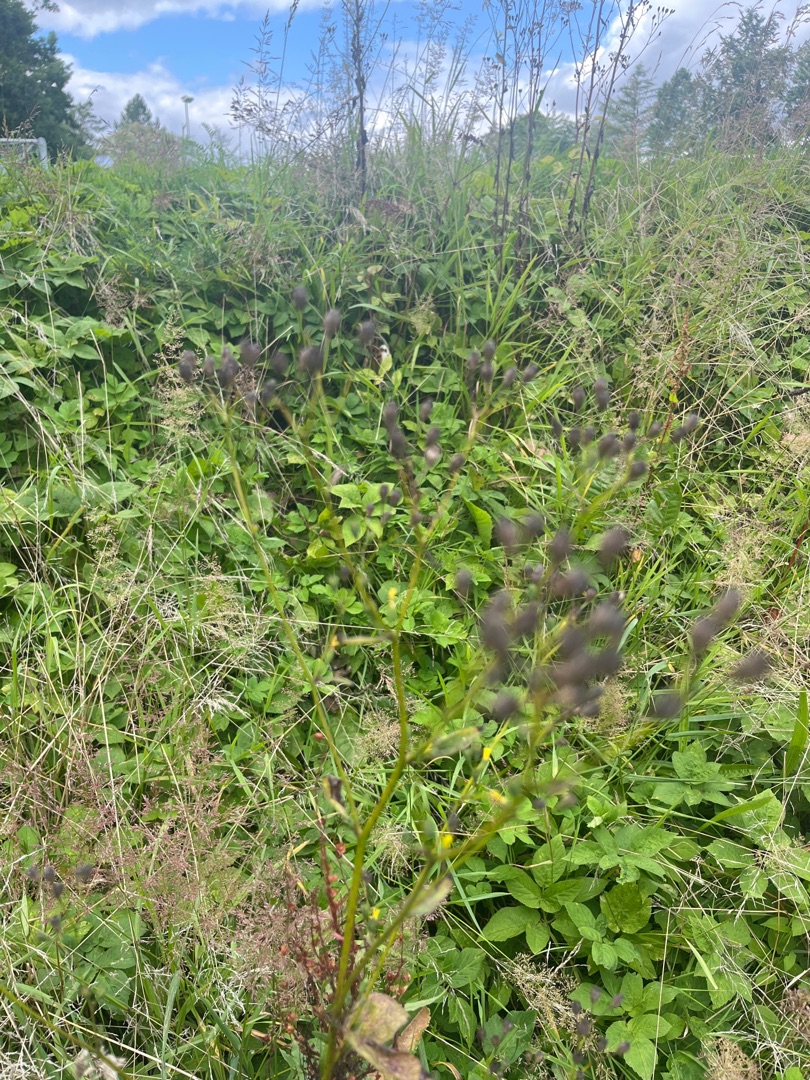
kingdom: Plantae
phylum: Tracheophyta
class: Magnoliopsida
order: Asterales
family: Asteraceae
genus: Lapsana
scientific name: Lapsana communis
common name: Haremad
